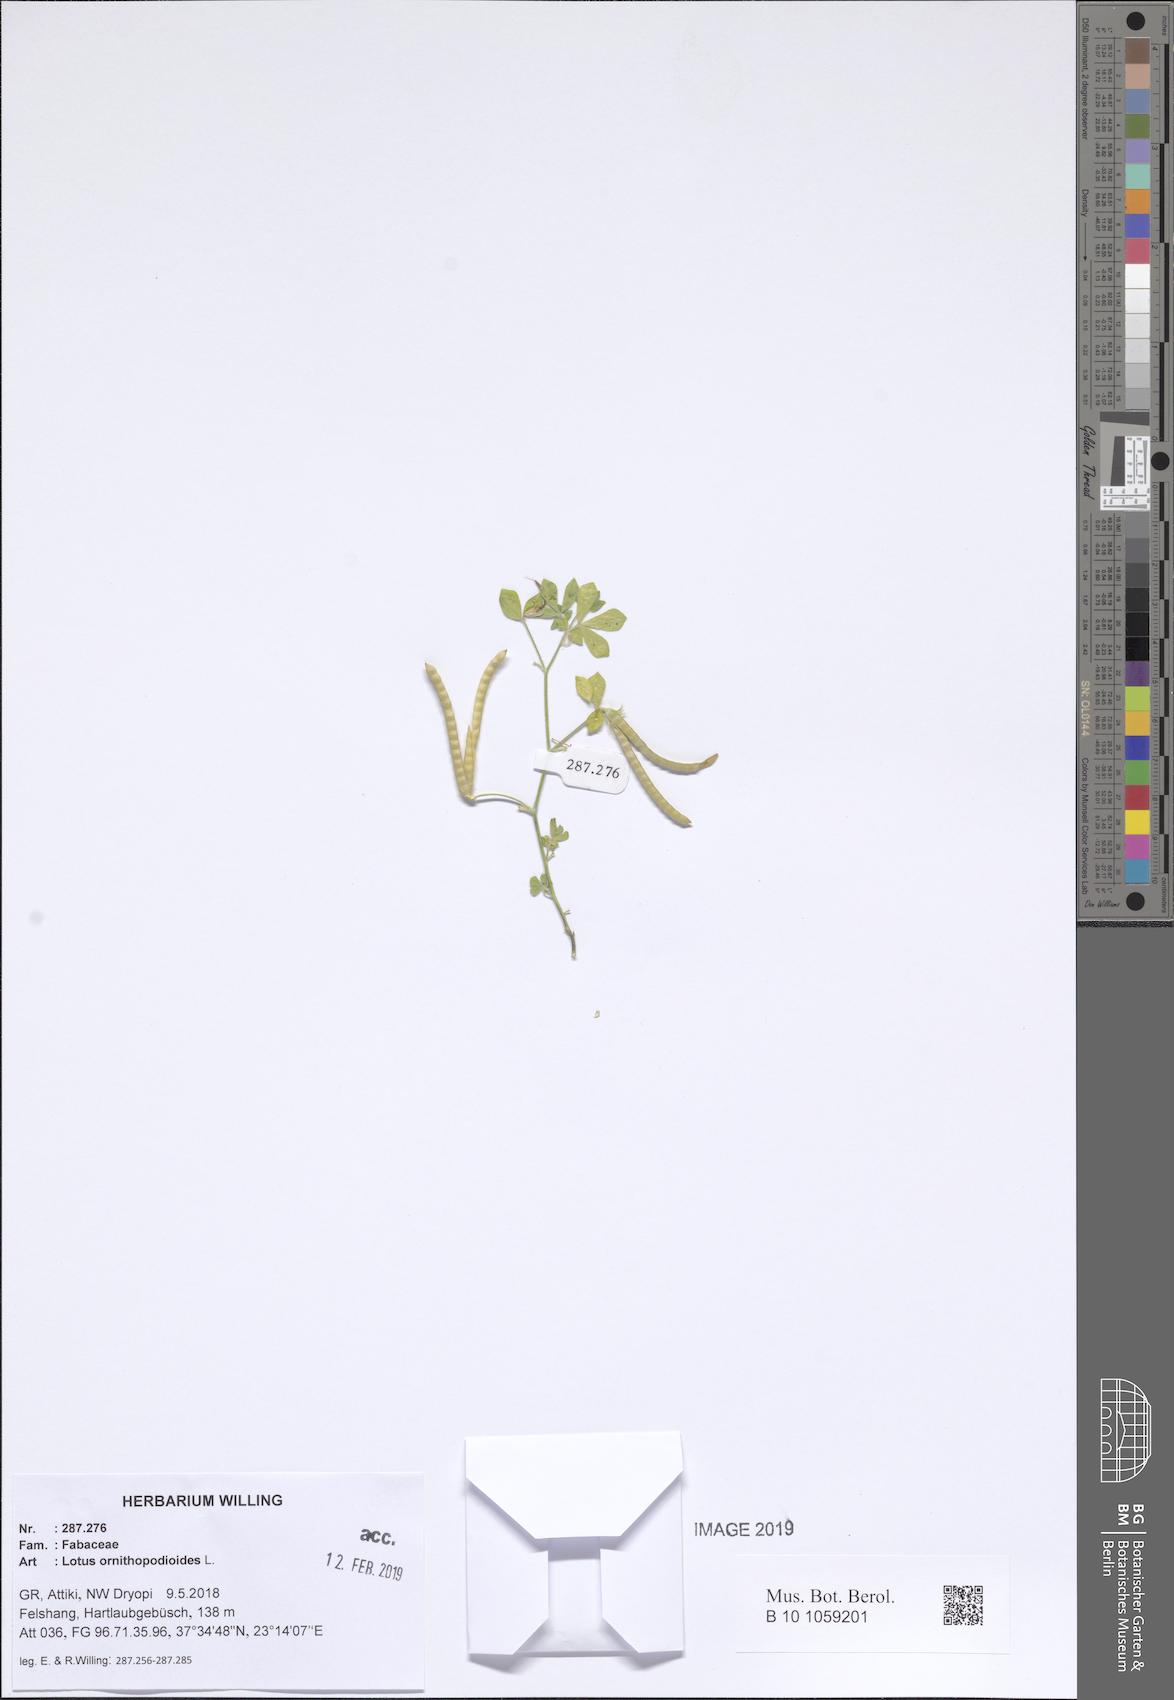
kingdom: Plantae
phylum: Tracheophyta
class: Magnoliopsida
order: Fabales
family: Fabaceae
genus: Lotus
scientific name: Lotus ornithopodioides
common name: Southern bird's-foot trefoil
